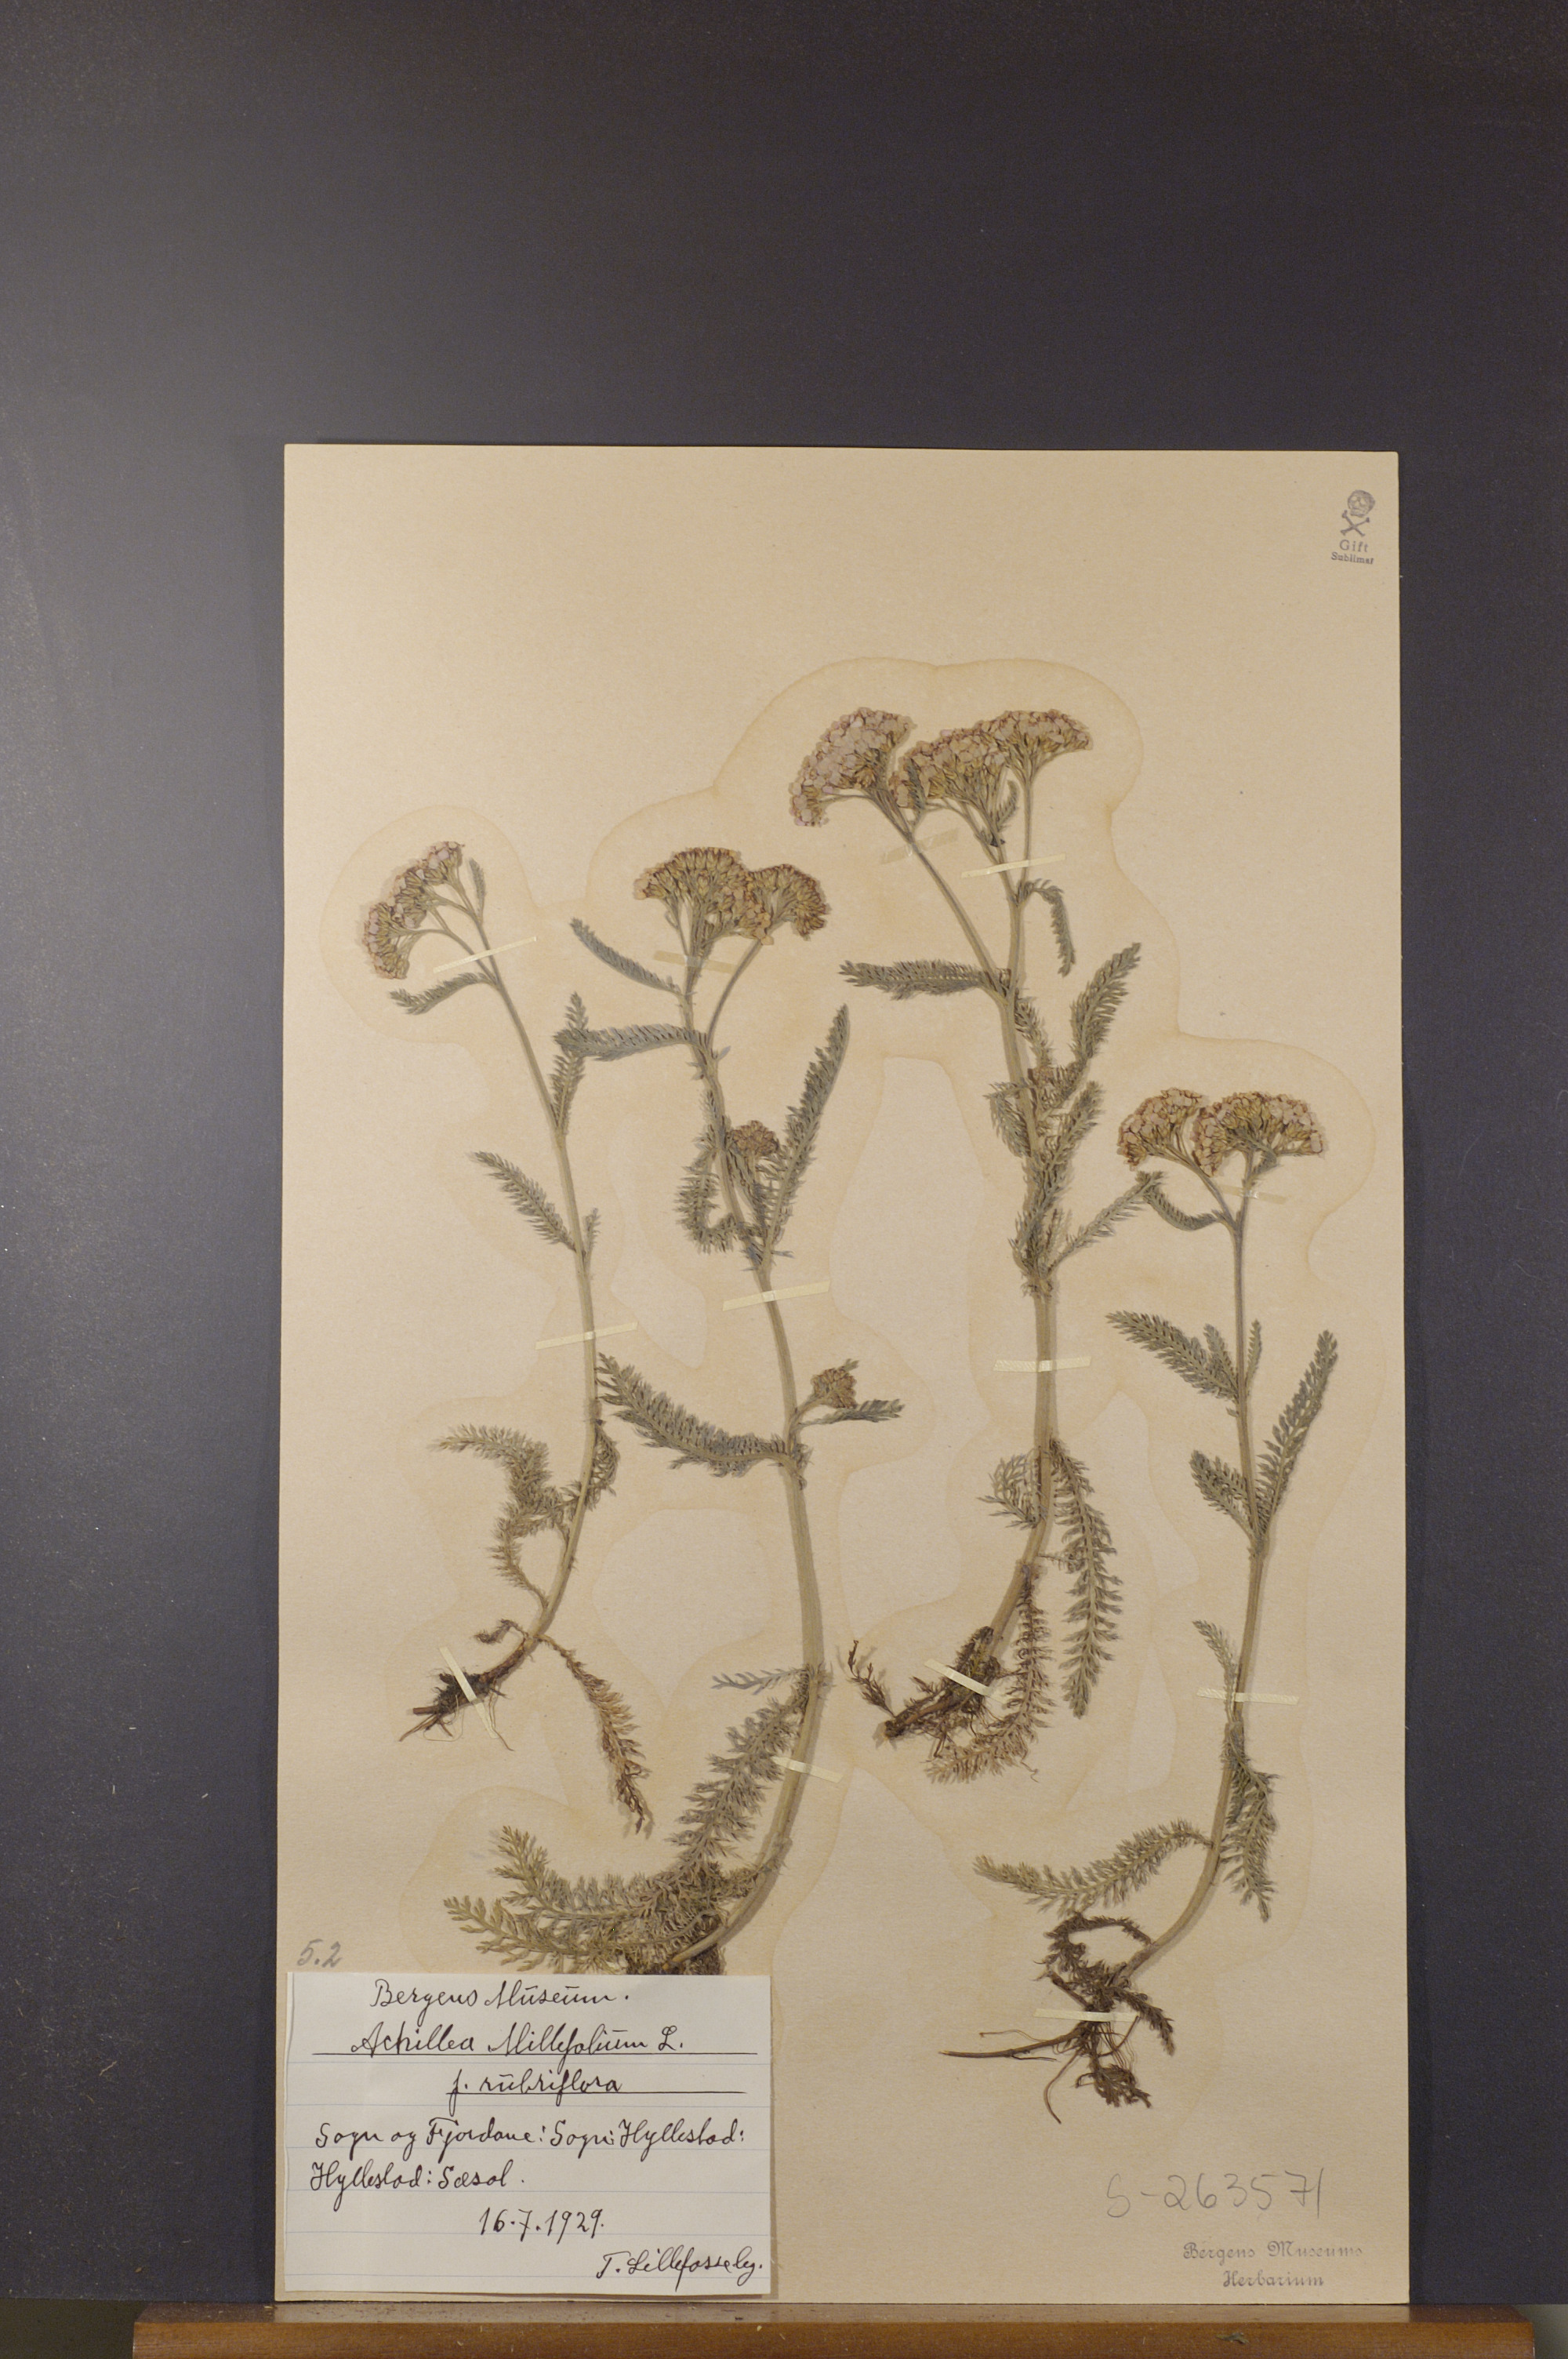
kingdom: Plantae
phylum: Tracheophyta
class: Magnoliopsida
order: Asterales
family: Asteraceae
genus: Achillea
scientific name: Achillea millefolium
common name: Yarrow
